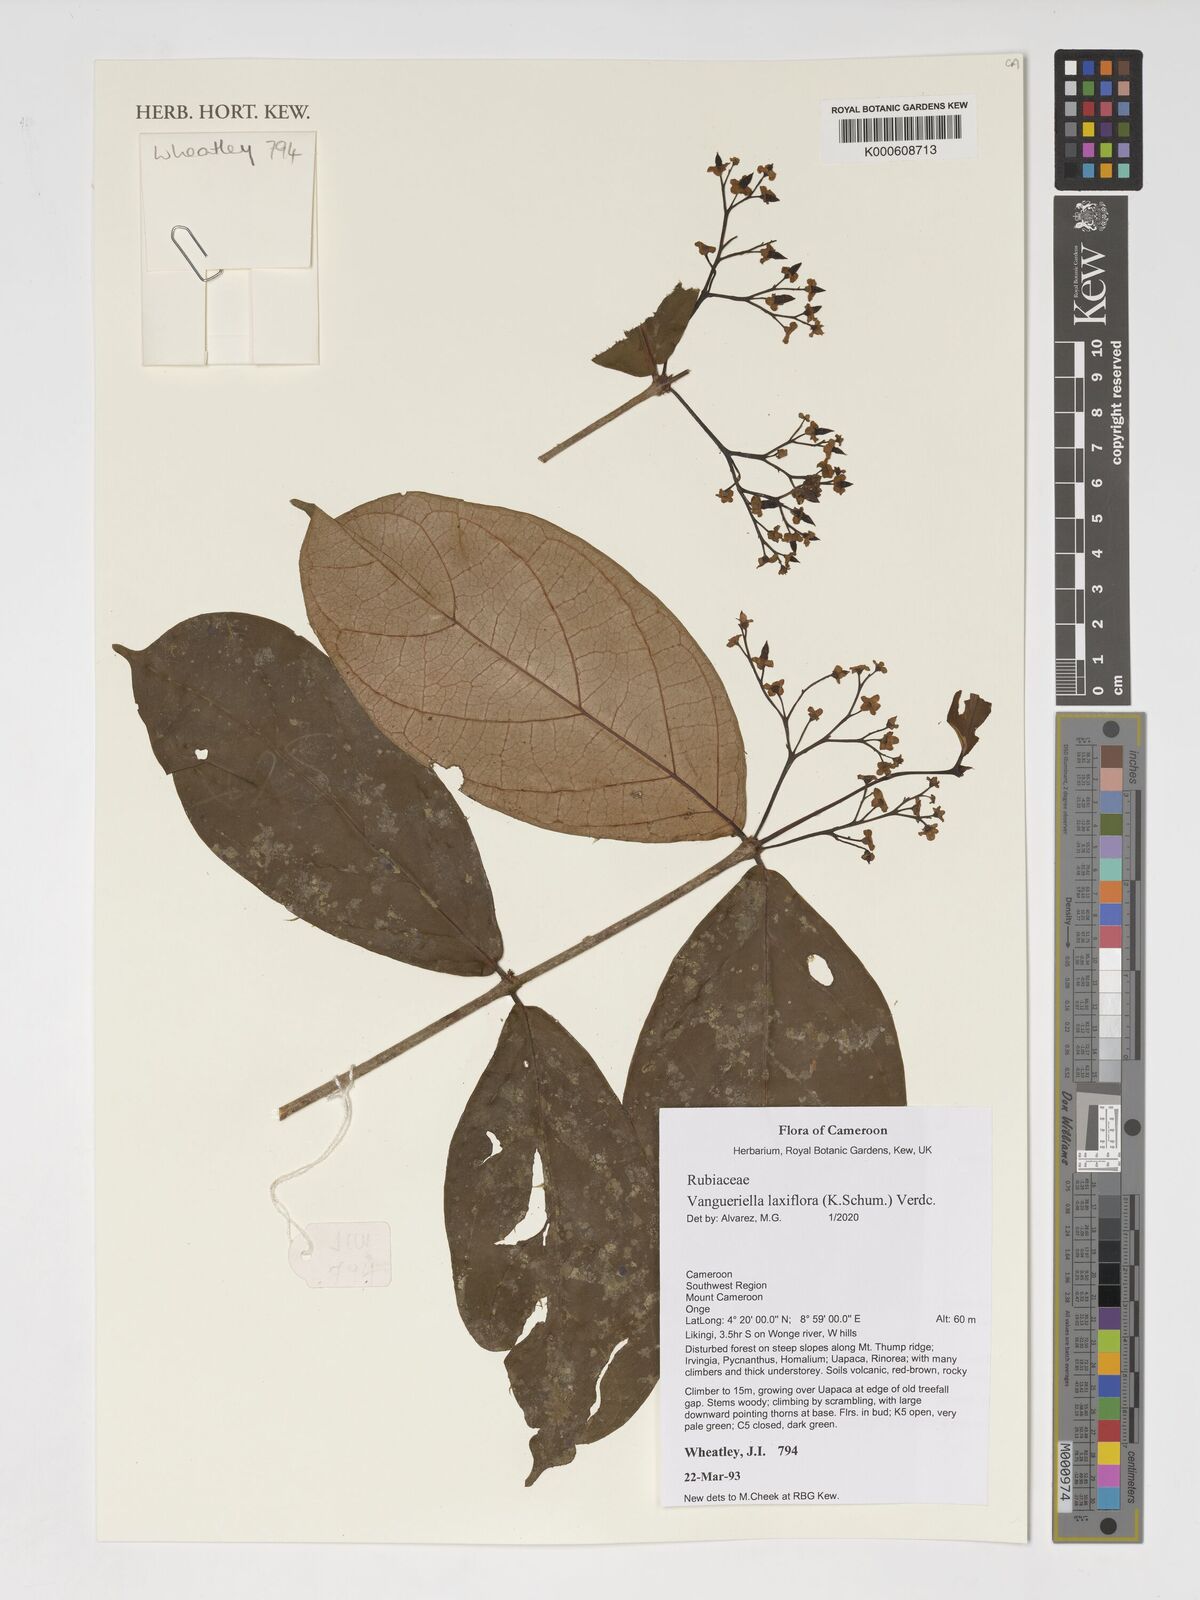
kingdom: Plantae
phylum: Tracheophyta
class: Magnoliopsida
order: Gentianales
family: Rubiaceae
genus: Vangueriella
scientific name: Vangueriella laxiflora
